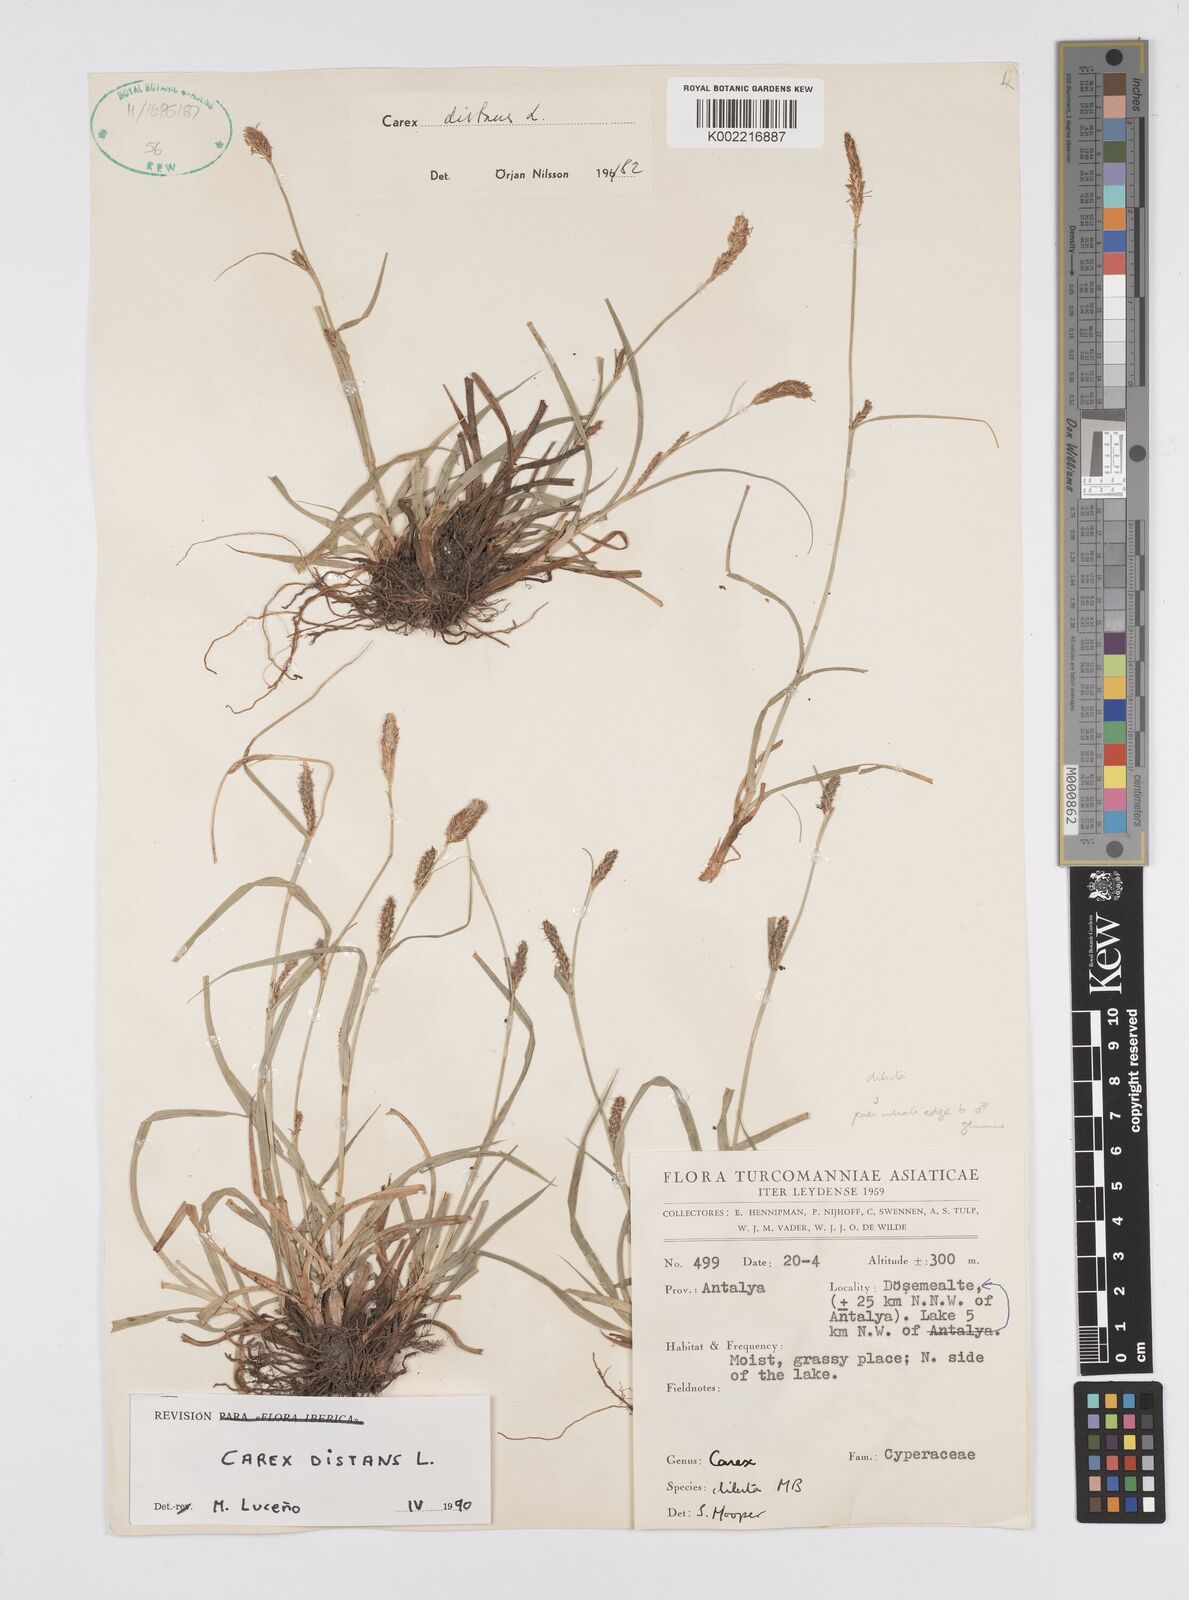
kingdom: Plantae
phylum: Tracheophyta
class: Liliopsida
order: Poales
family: Cyperaceae
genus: Carex
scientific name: Carex distans
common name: Distant sedge
